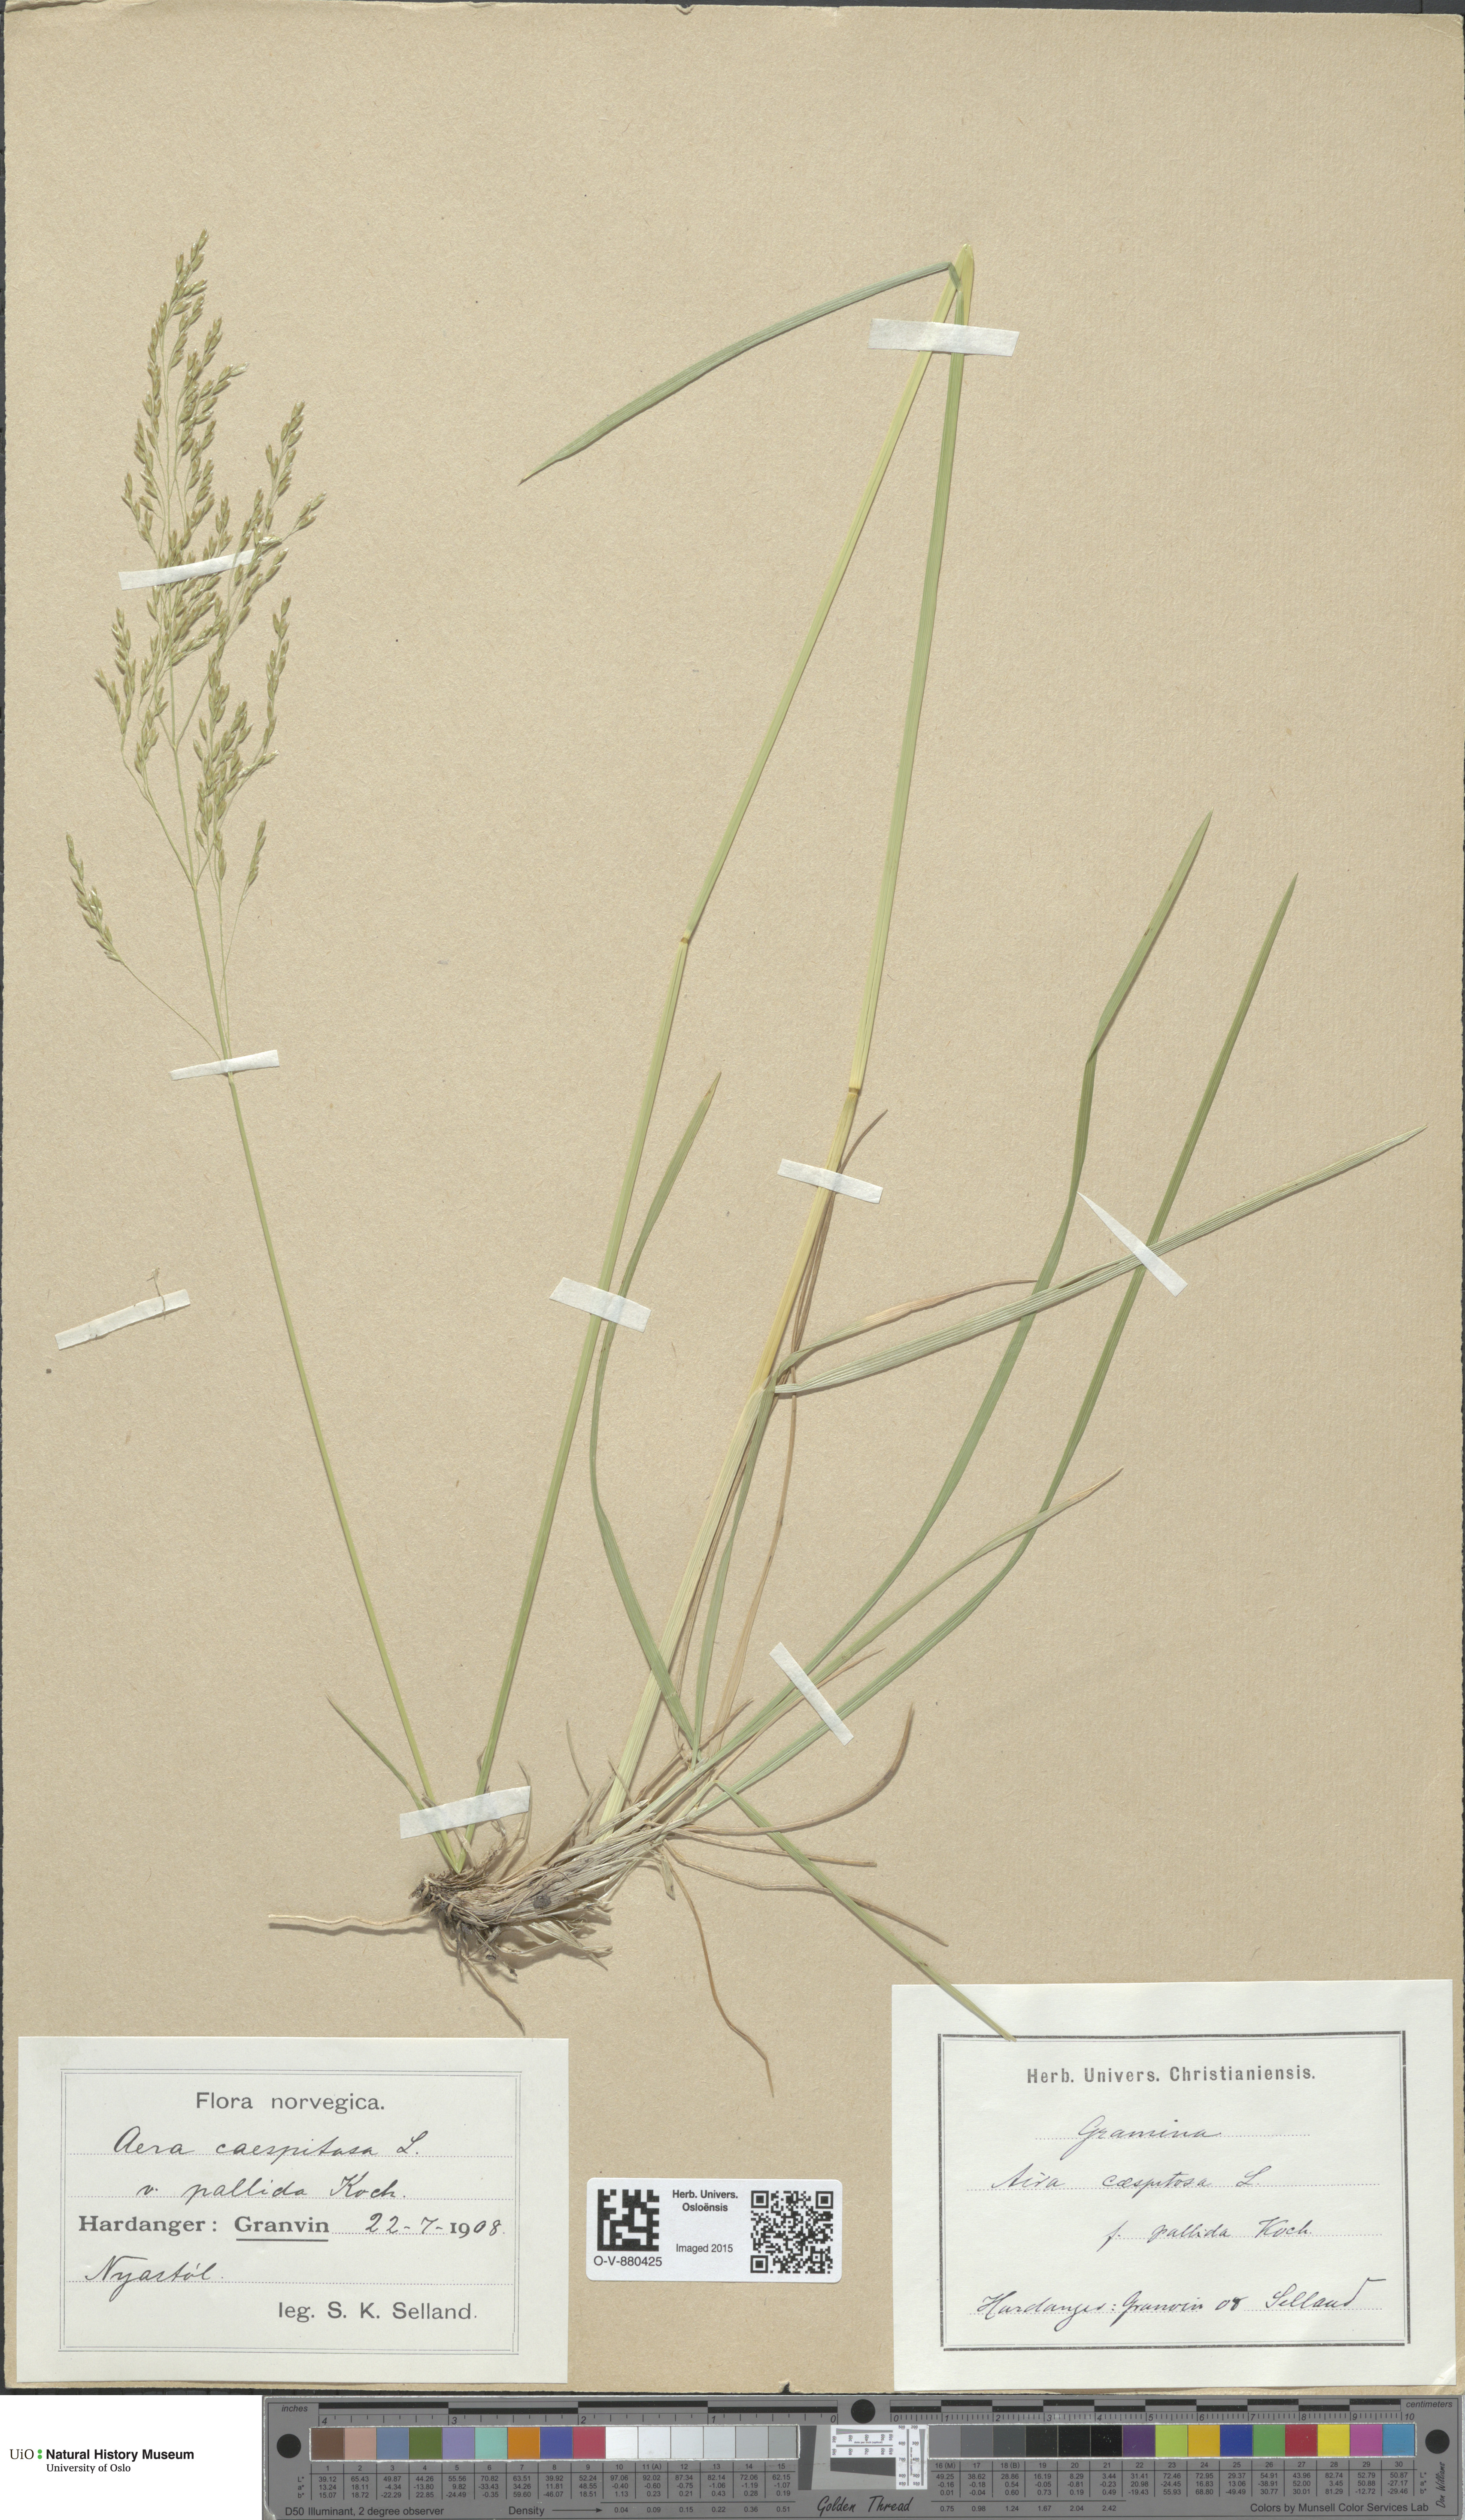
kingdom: Plantae
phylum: Tracheophyta
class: Liliopsida
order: Poales
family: Poaceae
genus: Deschampsia
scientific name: Deschampsia cespitosa
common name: Tufted hair-grass
